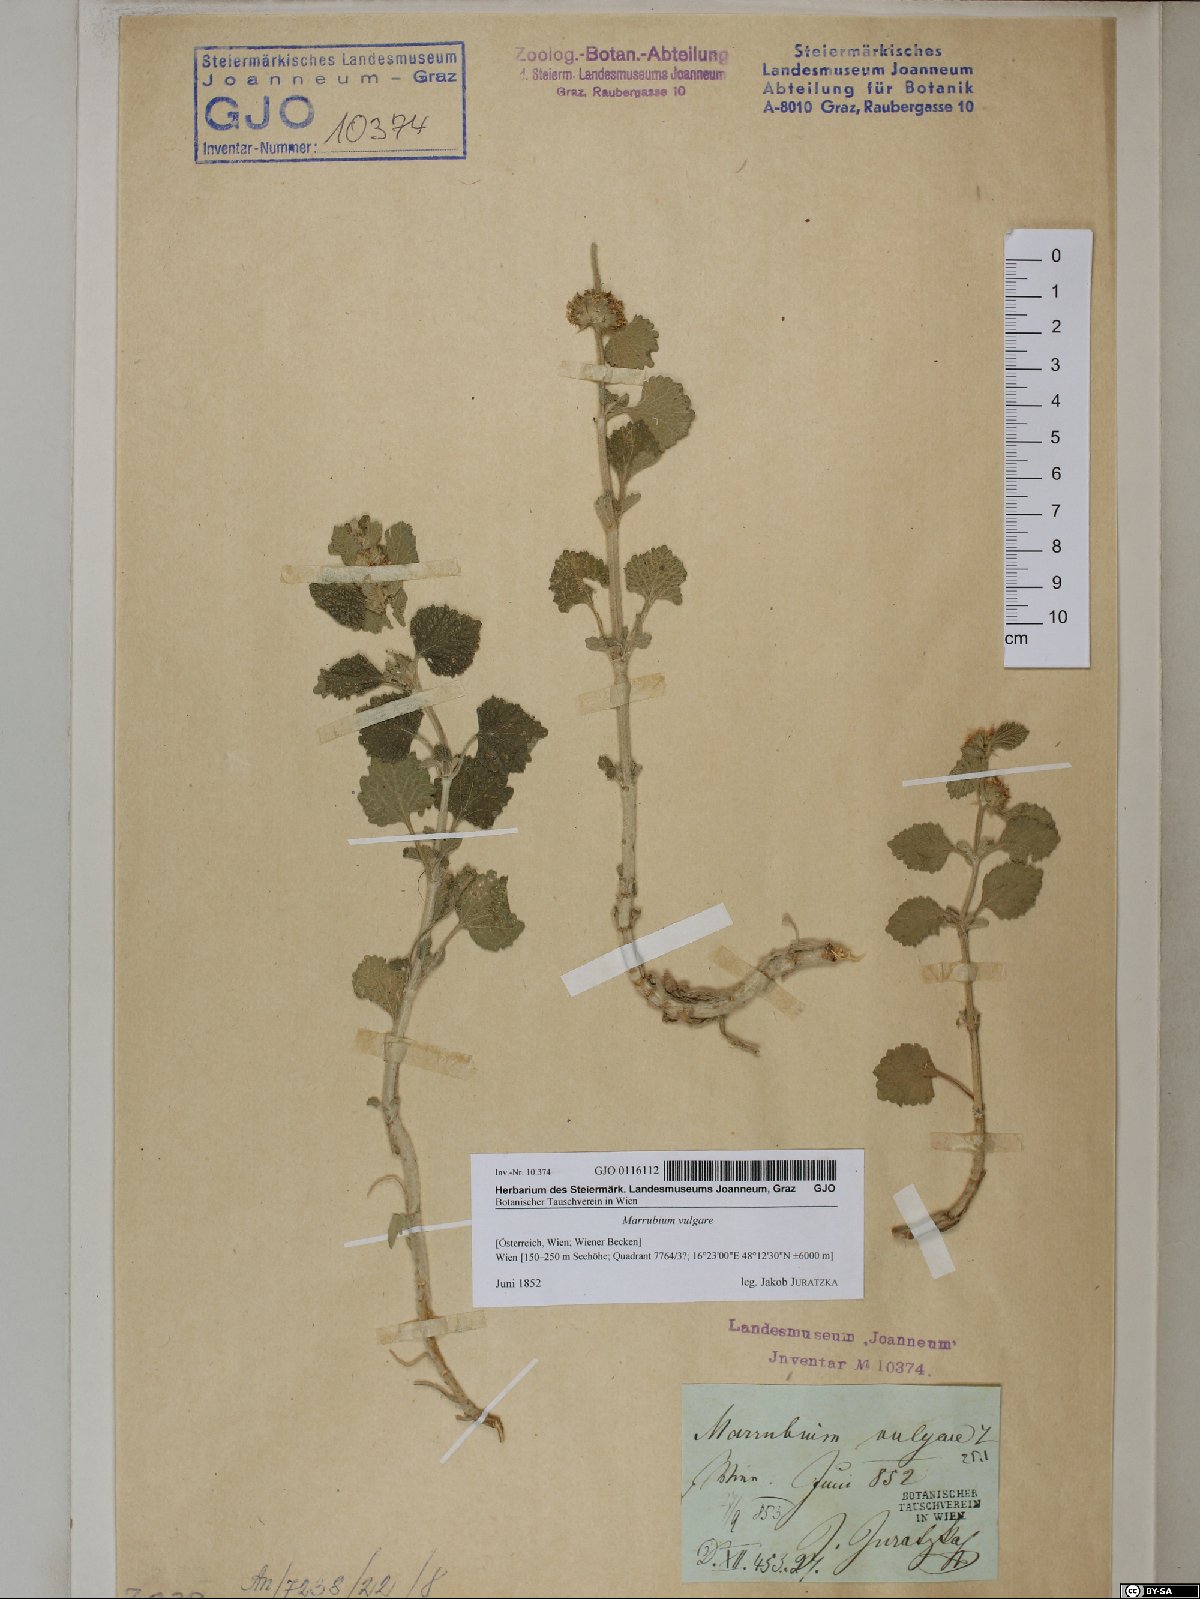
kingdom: Plantae
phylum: Tracheophyta
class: Magnoliopsida
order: Lamiales
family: Lamiaceae
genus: Marrubium
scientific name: Marrubium vulgare
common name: Horehound
